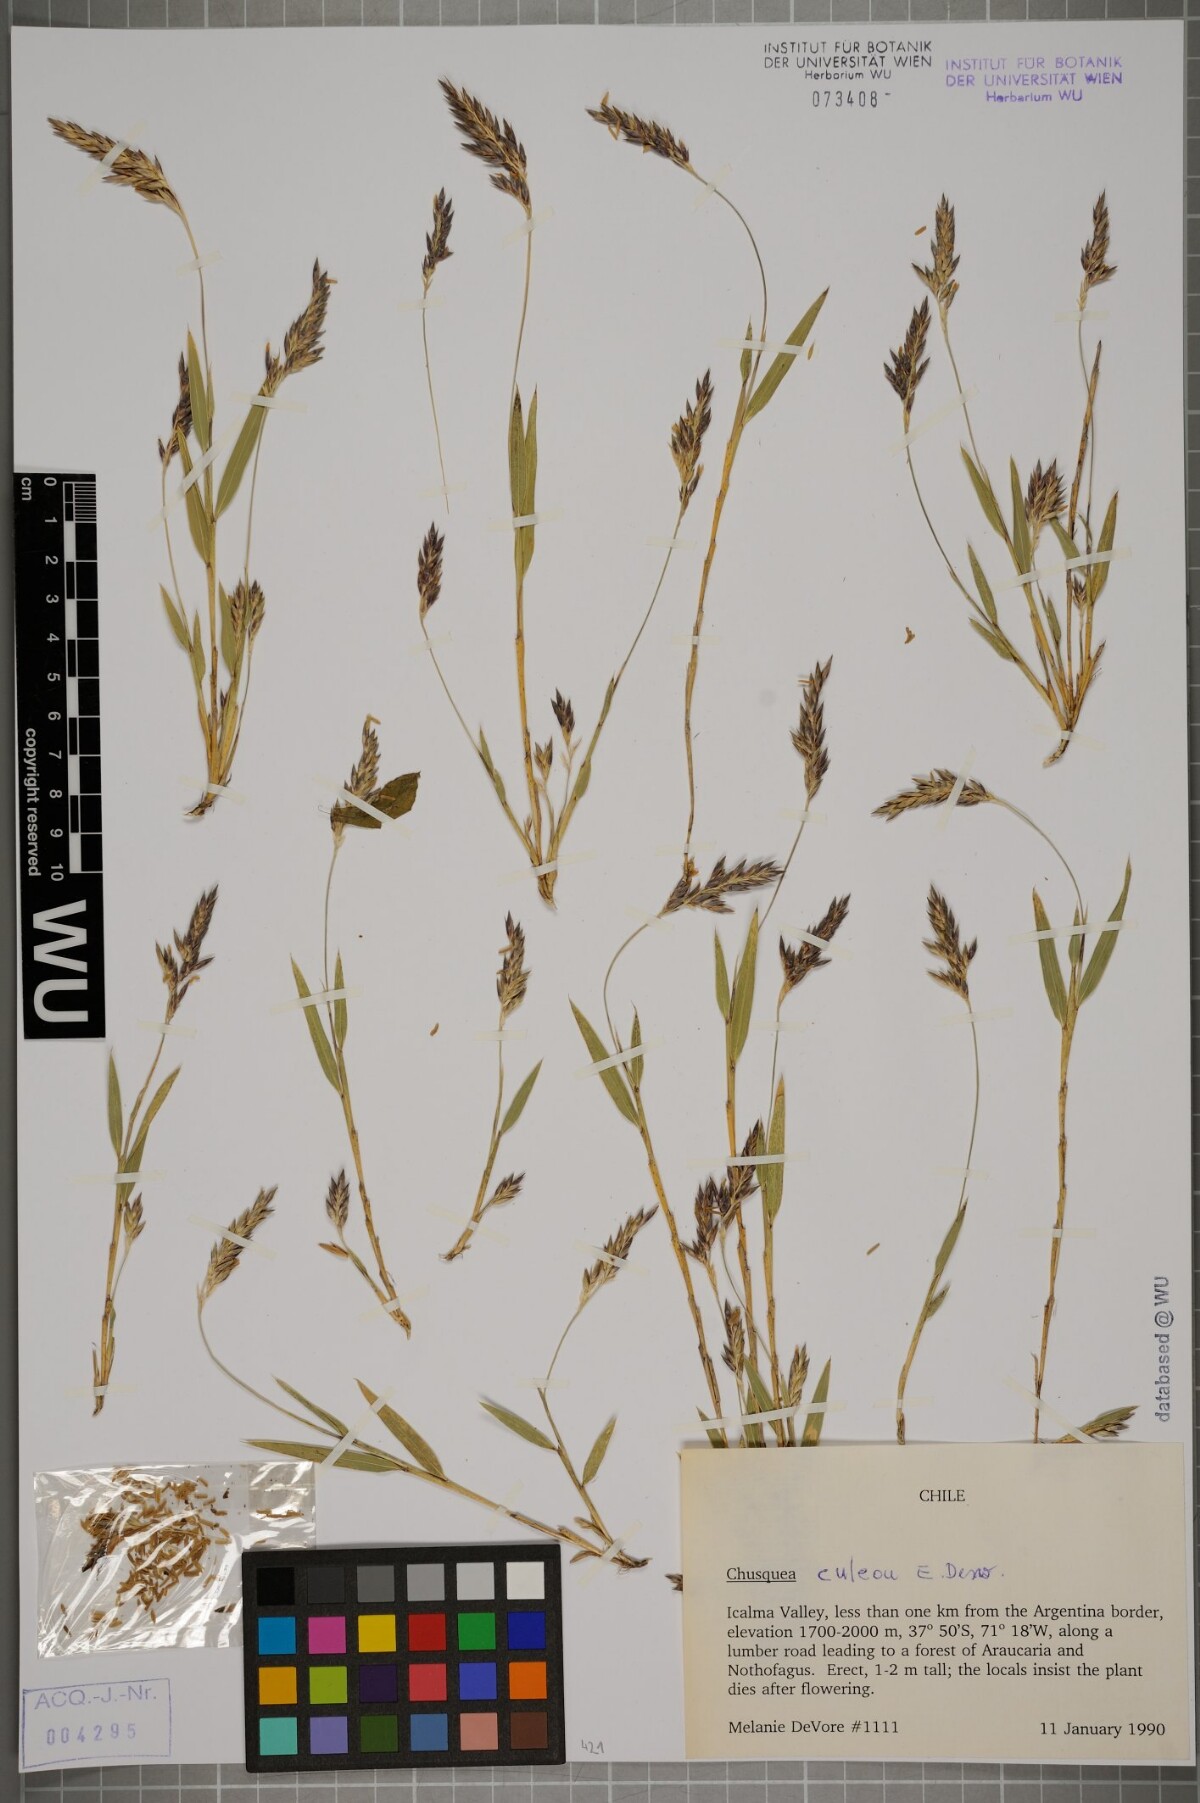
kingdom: Plantae
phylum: Tracheophyta
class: Liliopsida
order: Poales
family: Poaceae
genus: Chusquea
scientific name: Chusquea culeou
